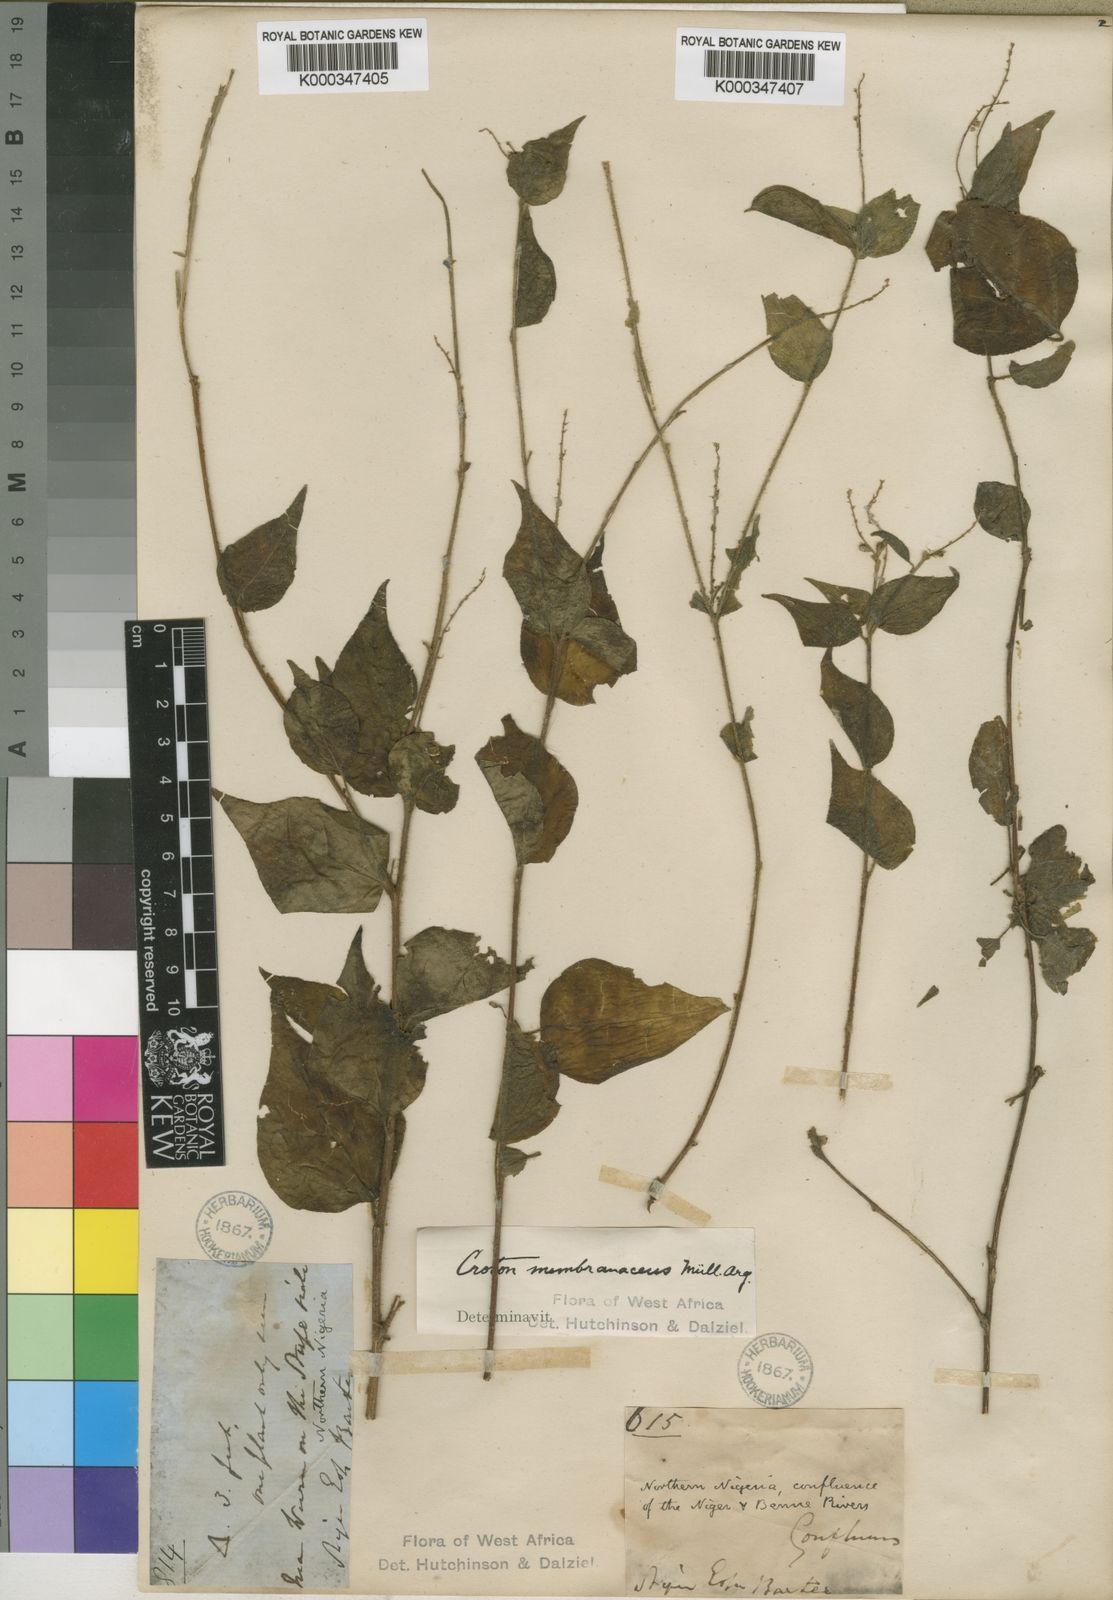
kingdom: Plantae
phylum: Tracheophyta
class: Magnoliopsida
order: Malpighiales
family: Euphorbiaceae
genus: Croton
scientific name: Croton
